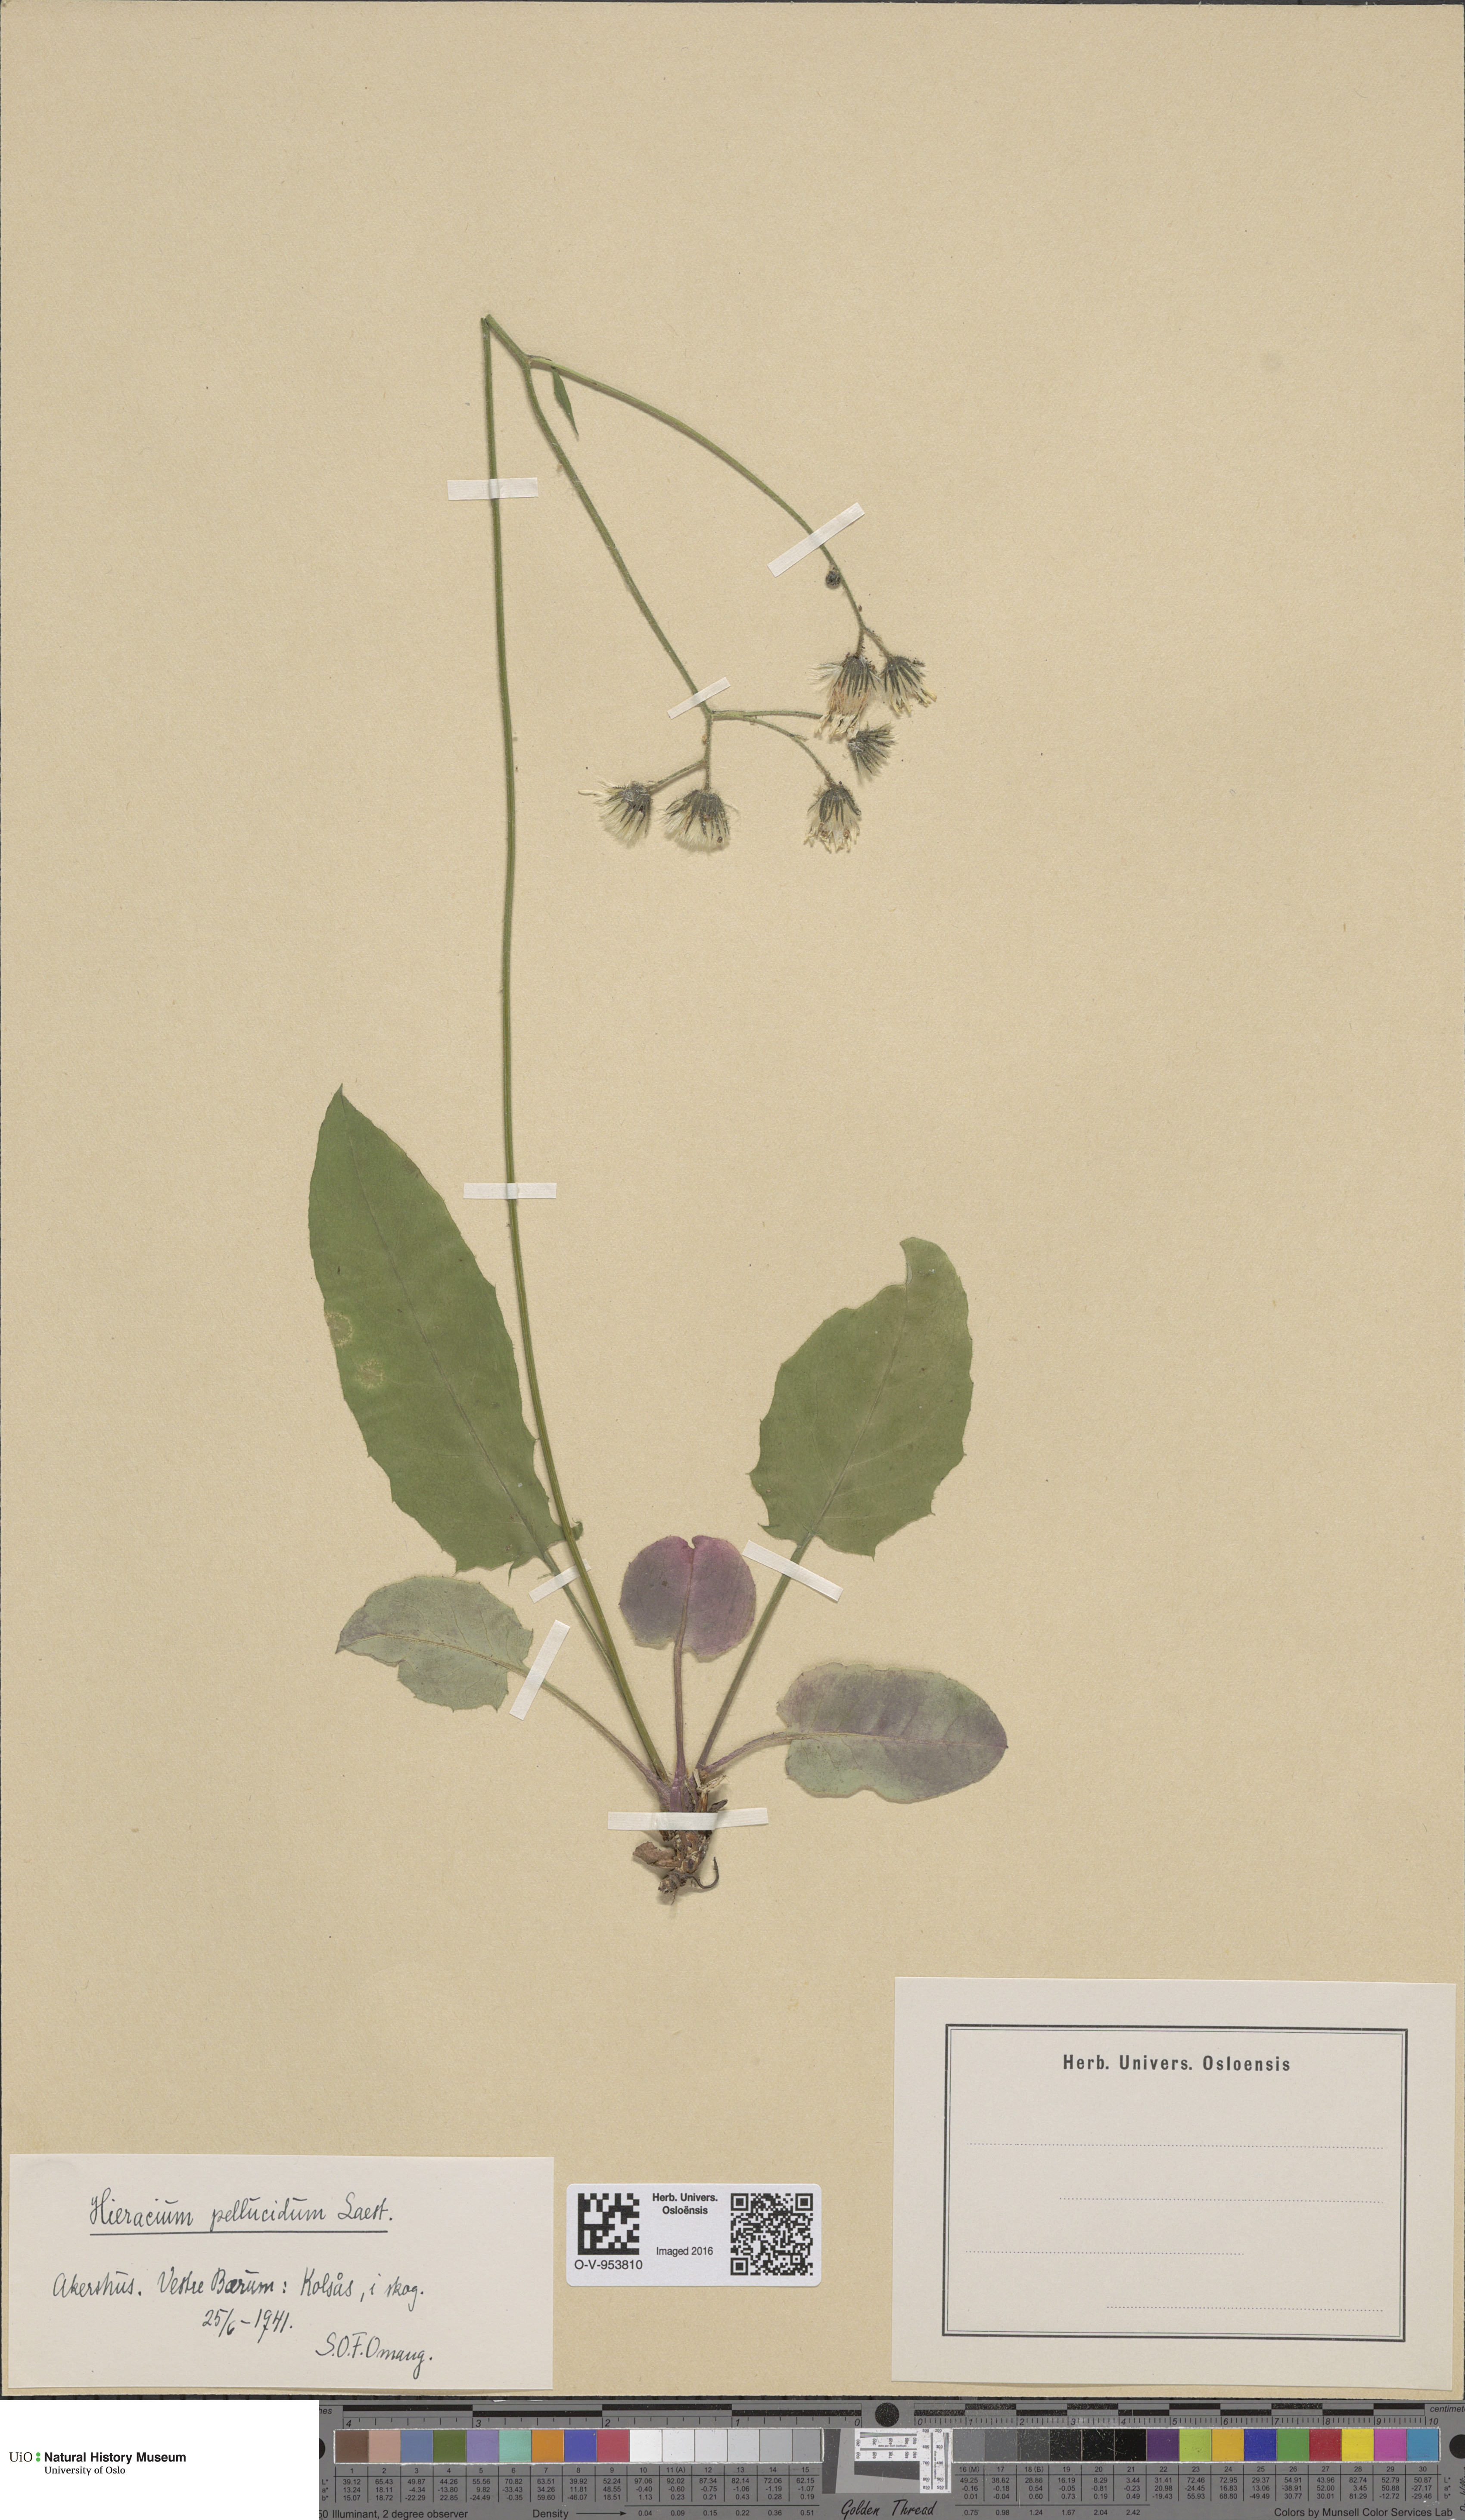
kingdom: Plantae
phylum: Tracheophyta
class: Magnoliopsida
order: Asterales
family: Asteraceae
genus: Hieracium
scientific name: Hieracium
